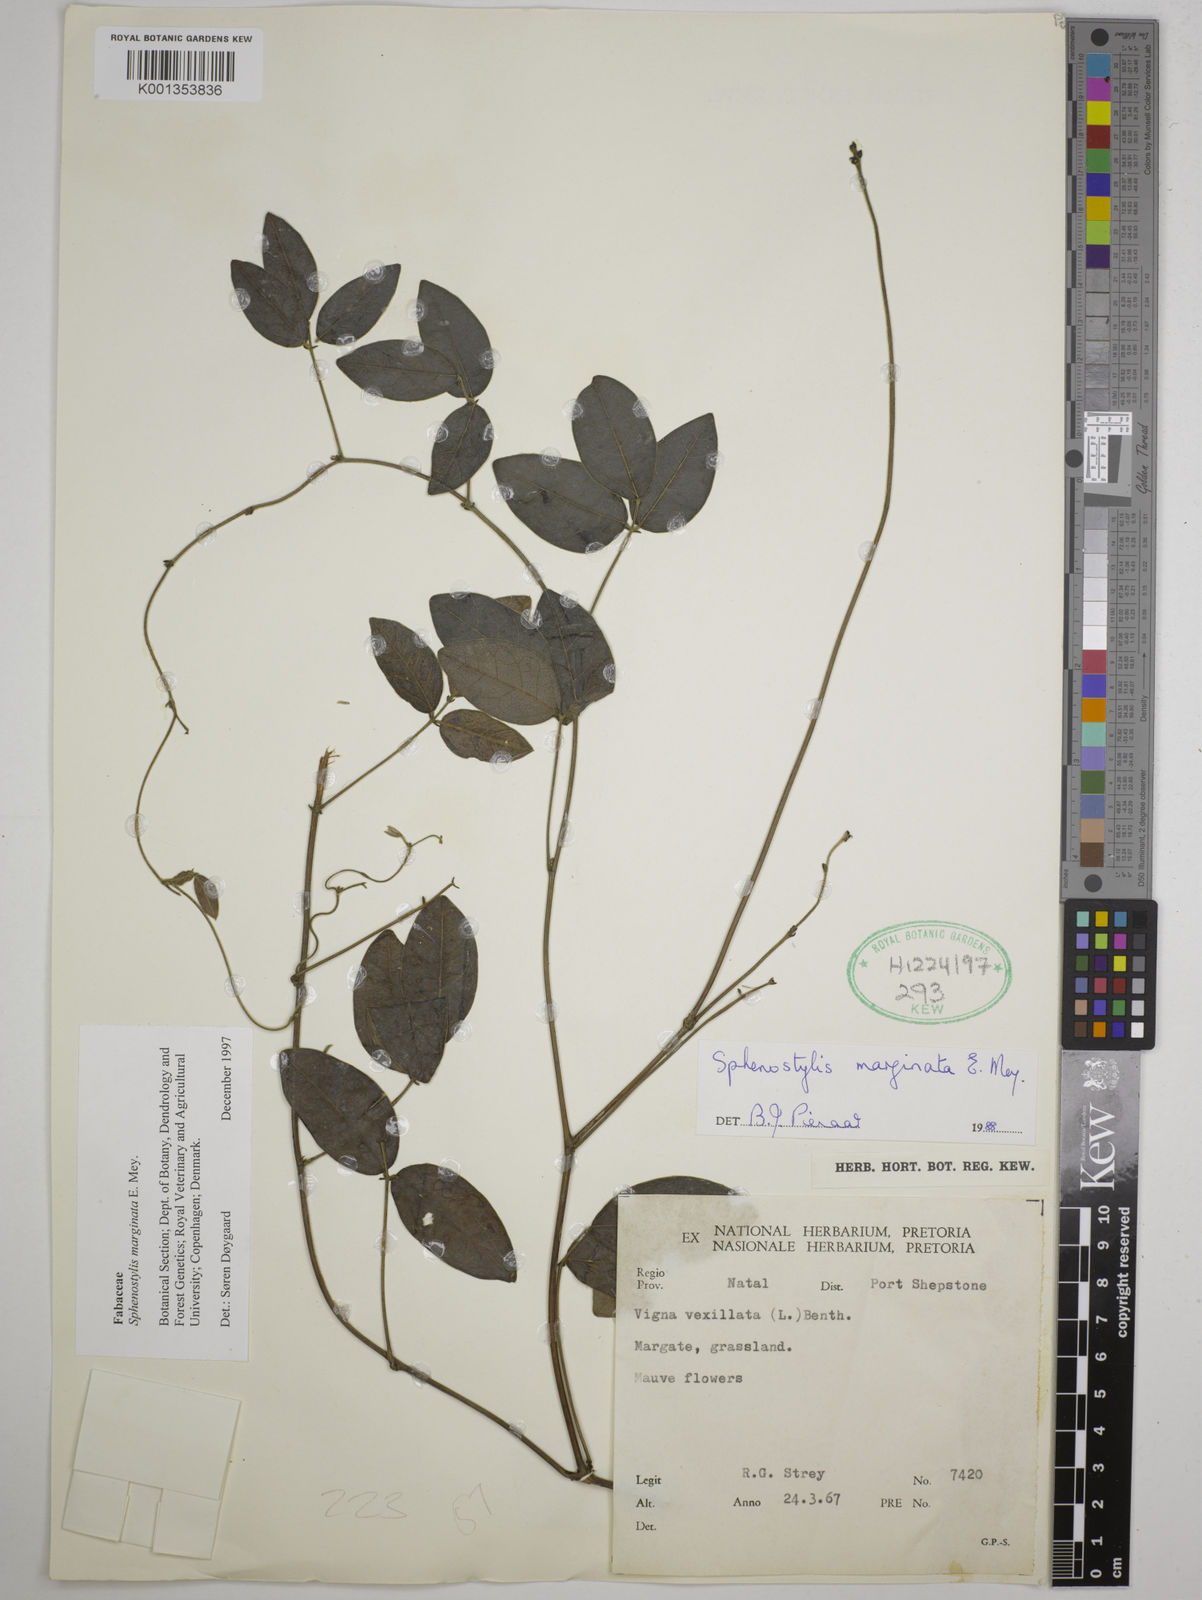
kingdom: Plantae
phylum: Tracheophyta
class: Magnoliopsida
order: Fabales
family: Fabaceae
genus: Sphenostylis
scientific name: Sphenostylis marginata
